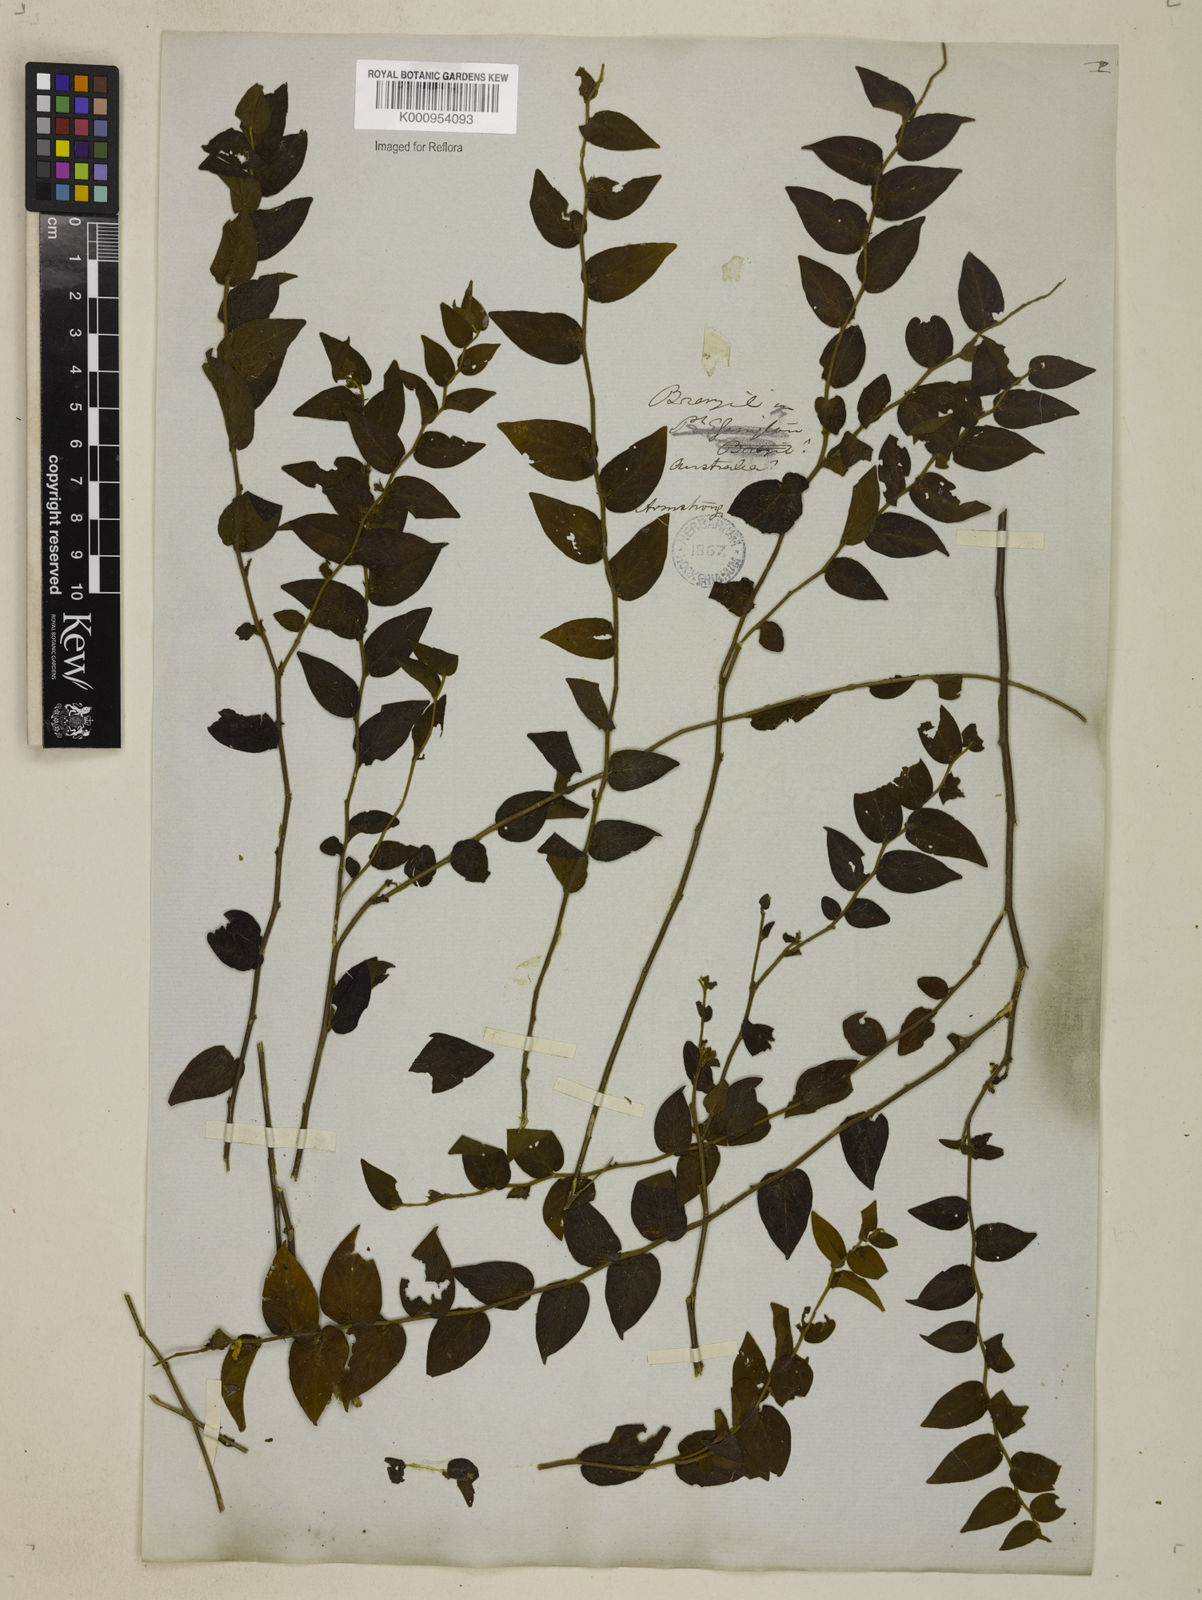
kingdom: Plantae
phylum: Tracheophyta
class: Magnoliopsida
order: Solanales
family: Convolvulaceae
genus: Evolvulus
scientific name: Evolvulus latifolius
